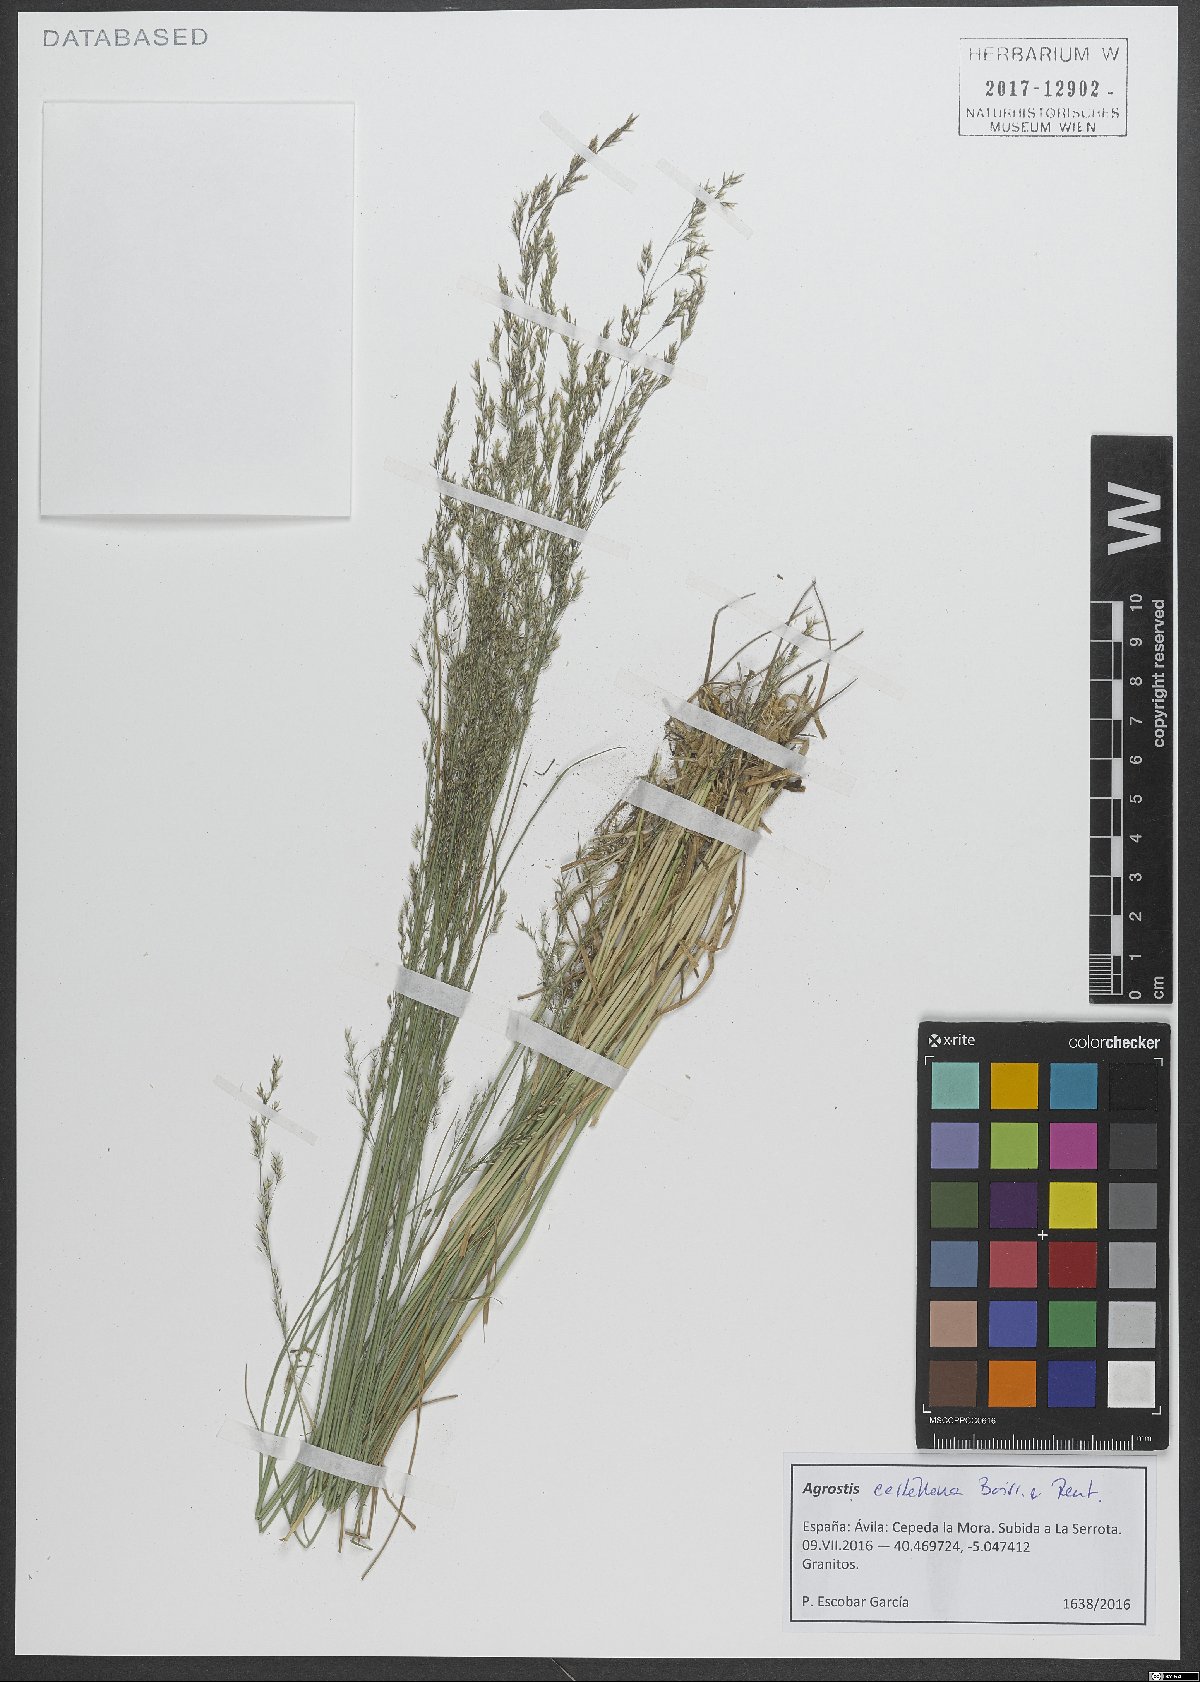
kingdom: Plantae
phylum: Tracheophyta
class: Liliopsida
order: Poales
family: Poaceae
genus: Agrostis
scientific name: Agrostis castellana
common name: Highland bent
